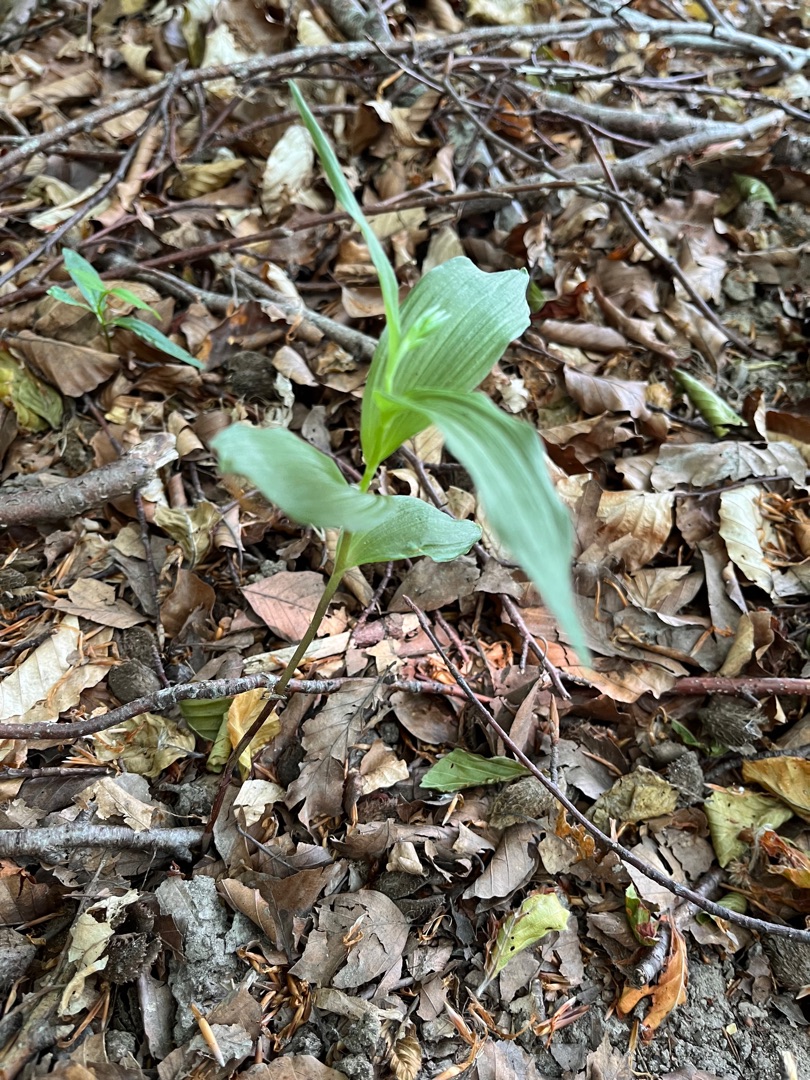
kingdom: Plantae
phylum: Tracheophyta
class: Liliopsida
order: Asparagales
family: Orchidaceae
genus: Epipactis
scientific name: Epipactis helleborine
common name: Skov-hullæbe
